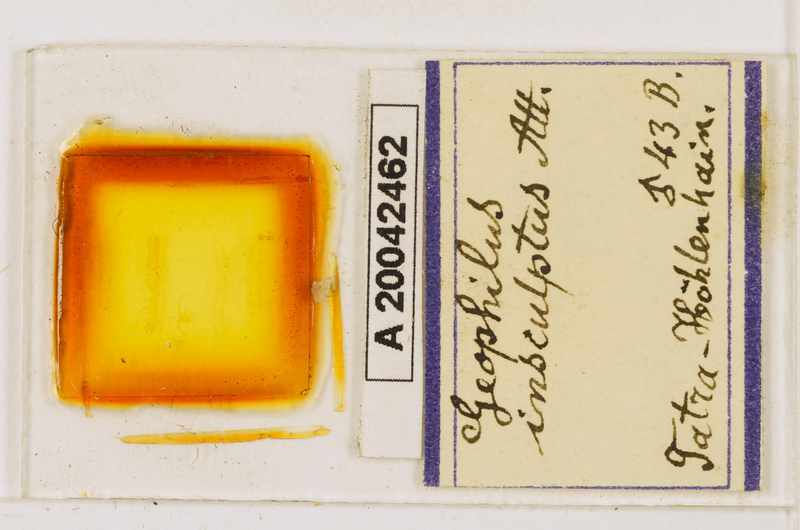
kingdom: Animalia
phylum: Arthropoda
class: Chilopoda
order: Geophilomorpha
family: Geophilidae
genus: Geophilus
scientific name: Geophilus insculptus
